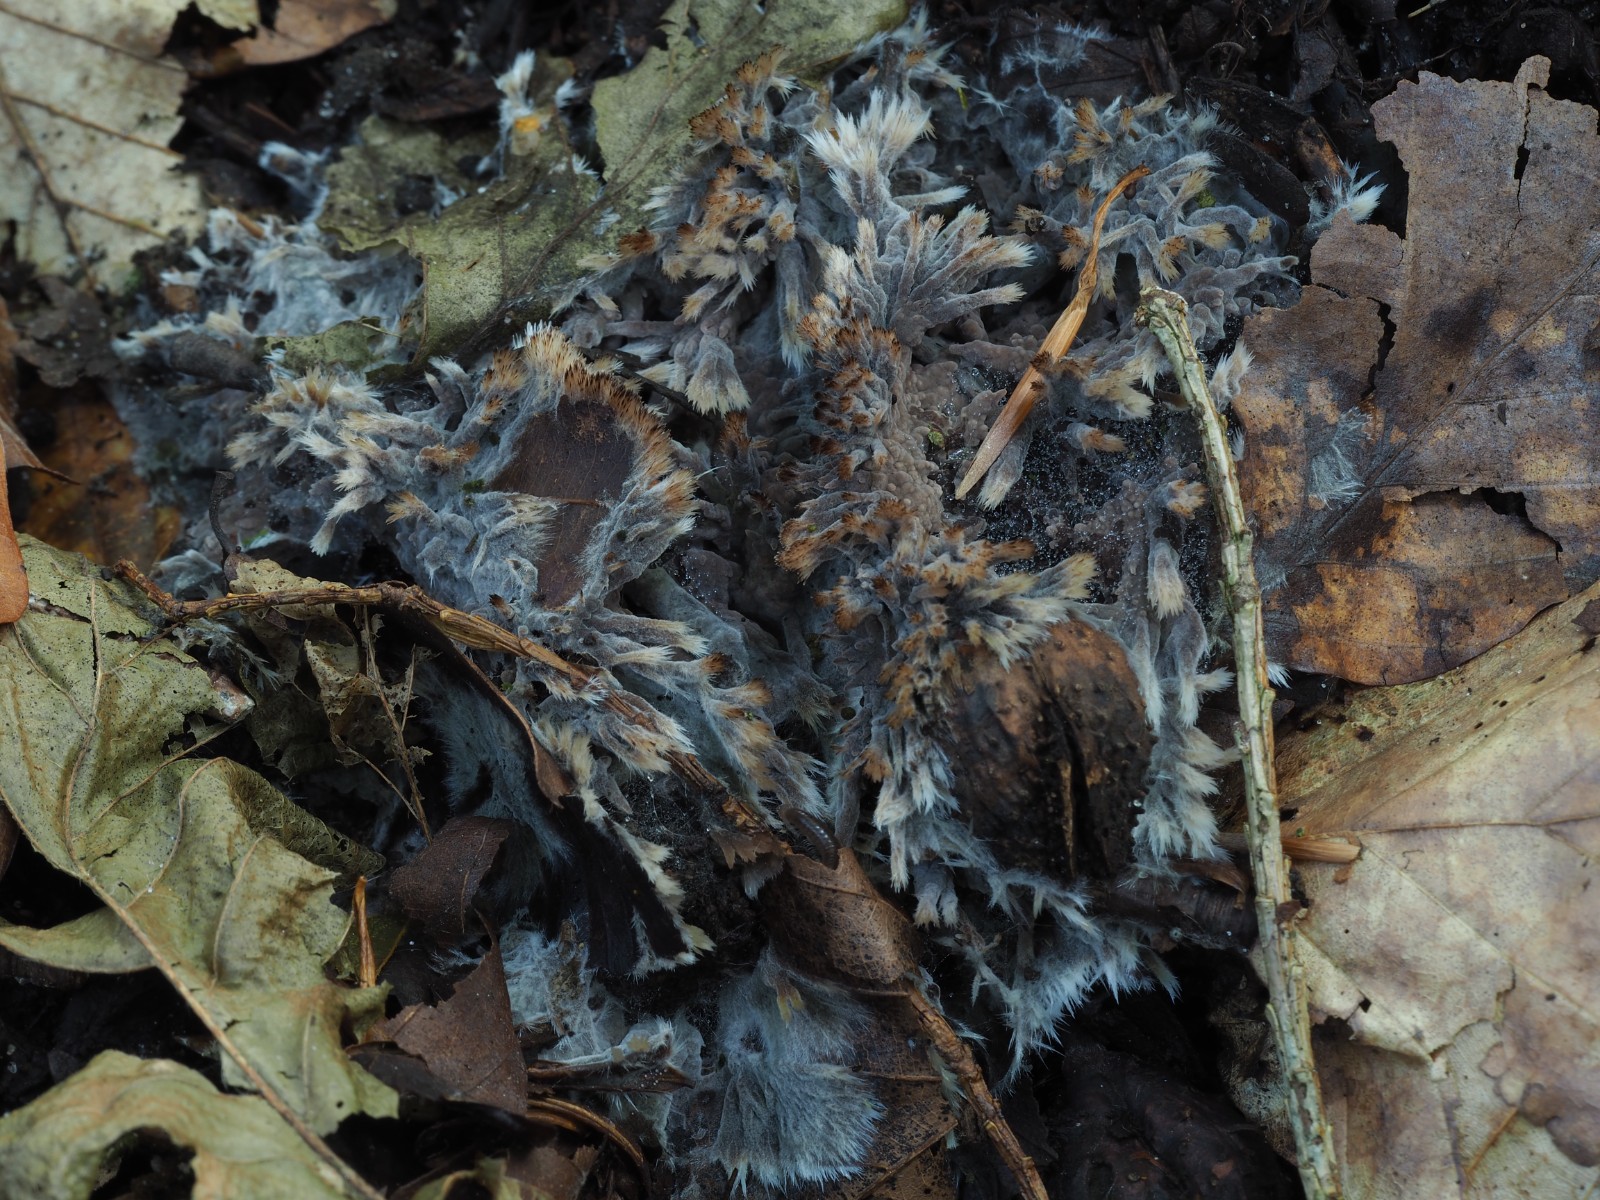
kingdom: Fungi
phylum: Basidiomycota
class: Agaricomycetes
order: Thelephorales
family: Thelephoraceae
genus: Thelephora
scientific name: Thelephora penicillata
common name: fladtrådt frynsesvamp
